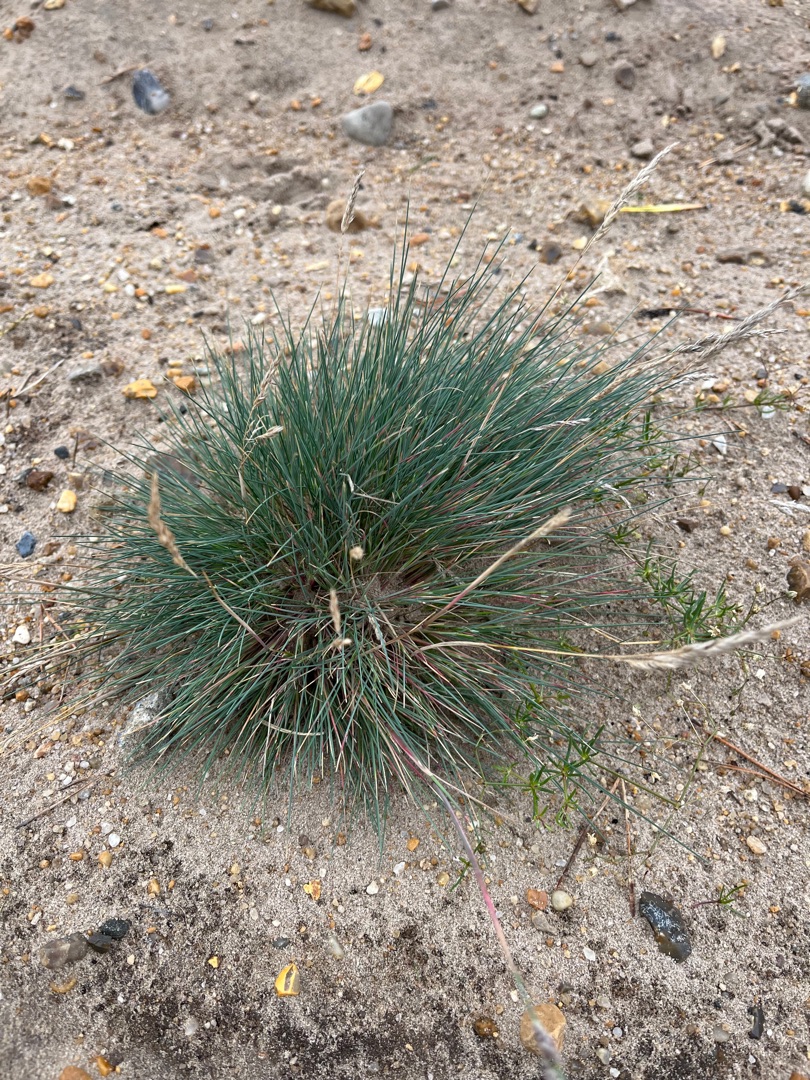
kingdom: Plantae
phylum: Tracheophyta
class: Liliopsida
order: Poales
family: Poaceae
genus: Corynephorus
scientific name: Corynephorus canescens
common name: Sandskæg
